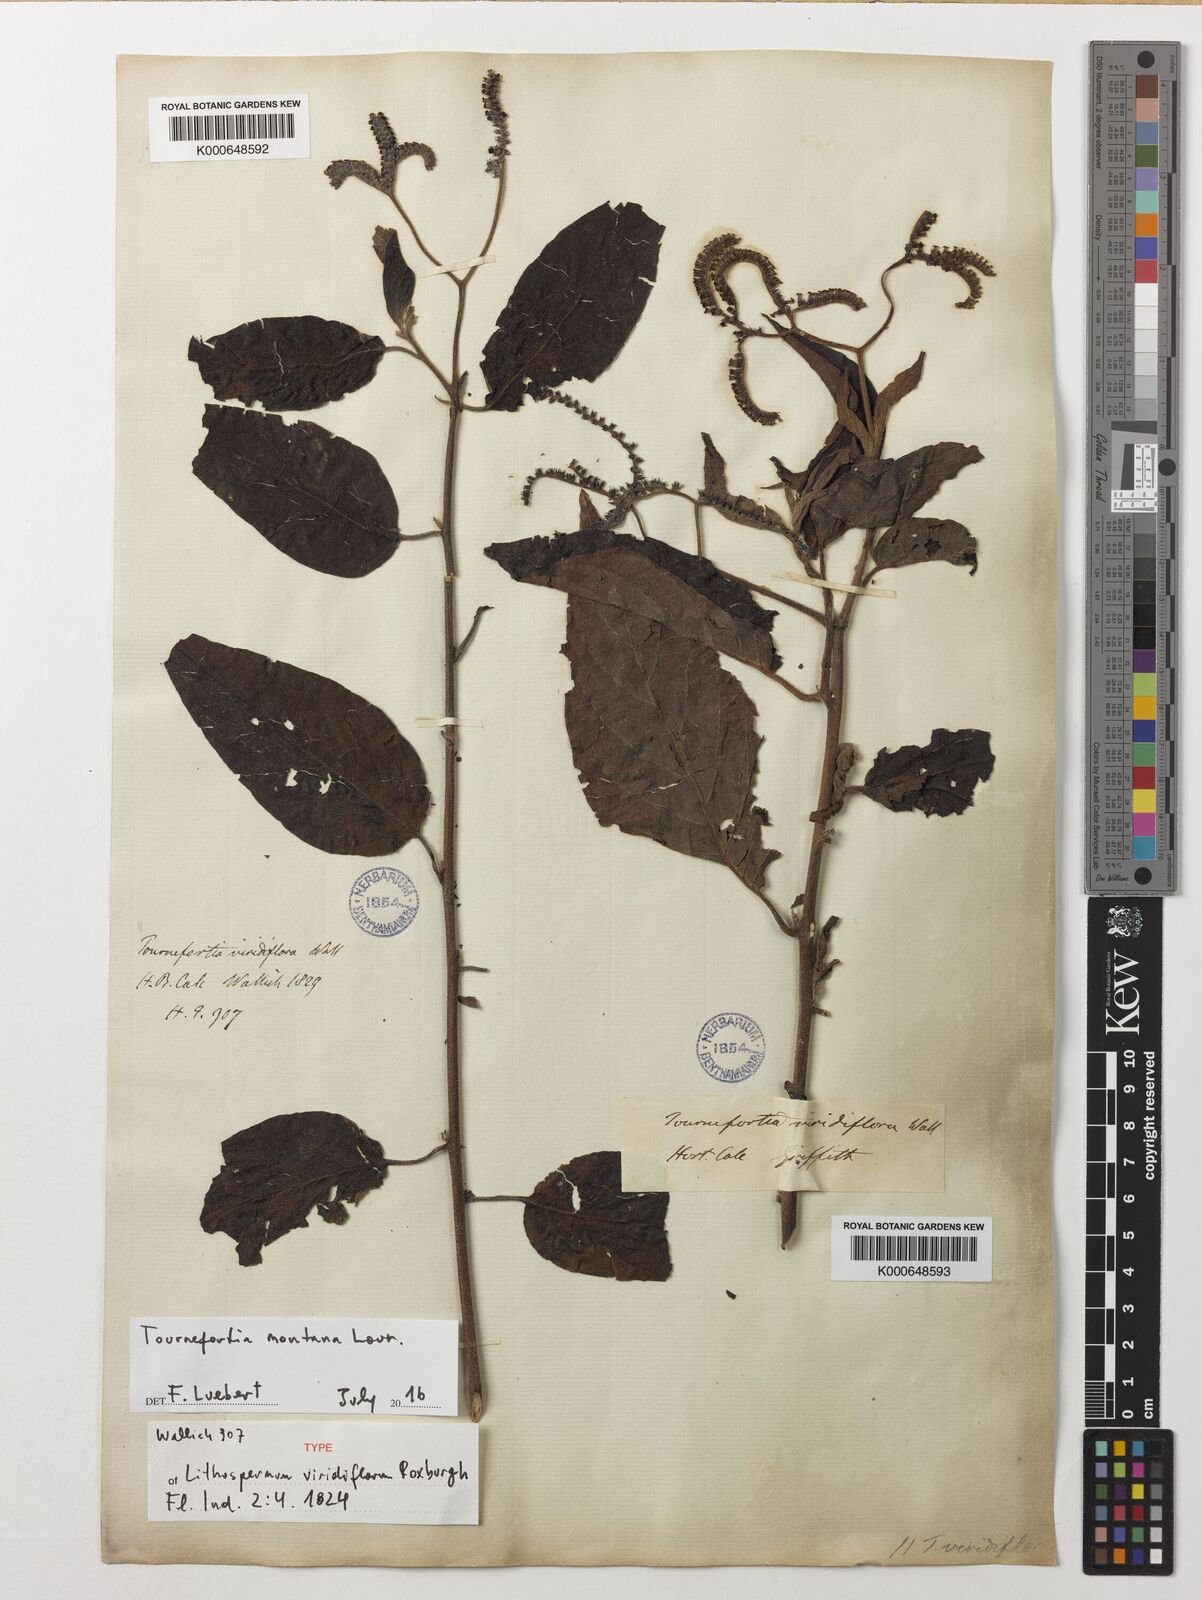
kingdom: Plantae
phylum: Tracheophyta
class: Magnoliopsida
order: Boraginales
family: Heliotropiaceae
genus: Tournefortia
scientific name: Tournefortia montana
